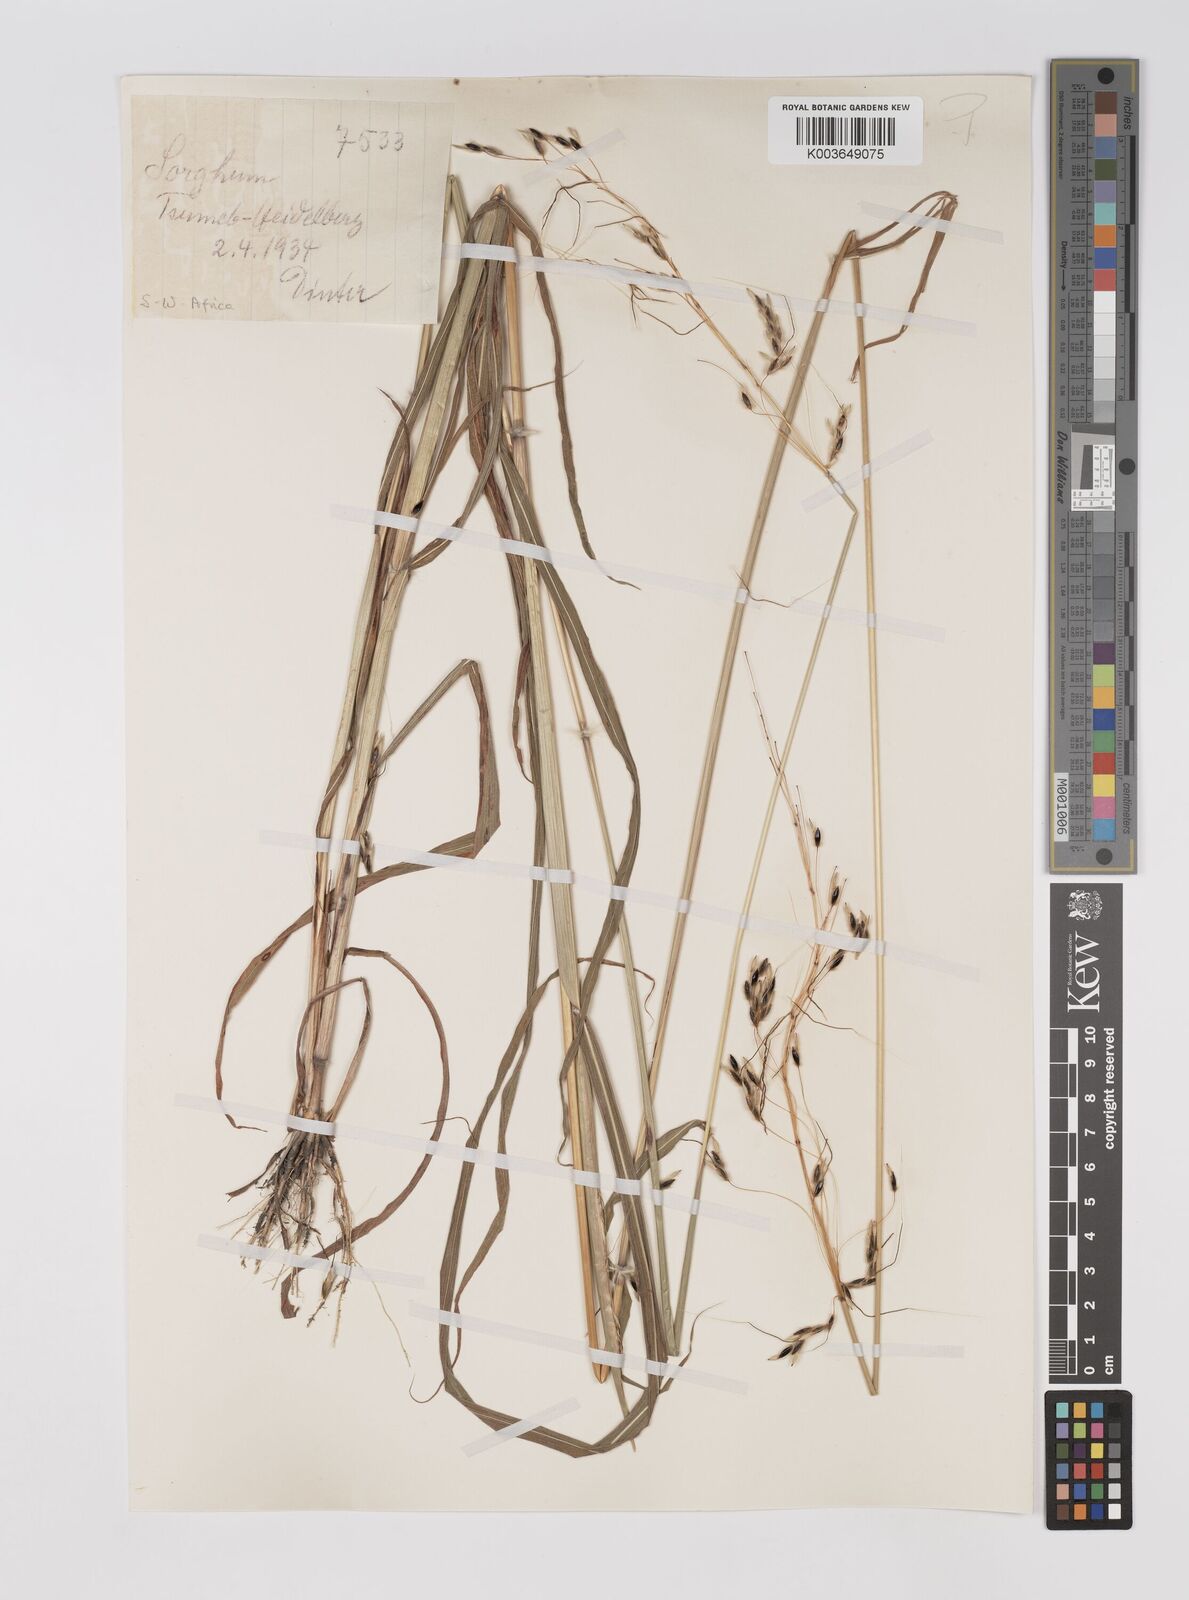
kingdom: Plantae
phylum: Tracheophyta
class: Liliopsida
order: Poales
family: Poaceae
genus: Sarga
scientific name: Sarga versicolor
